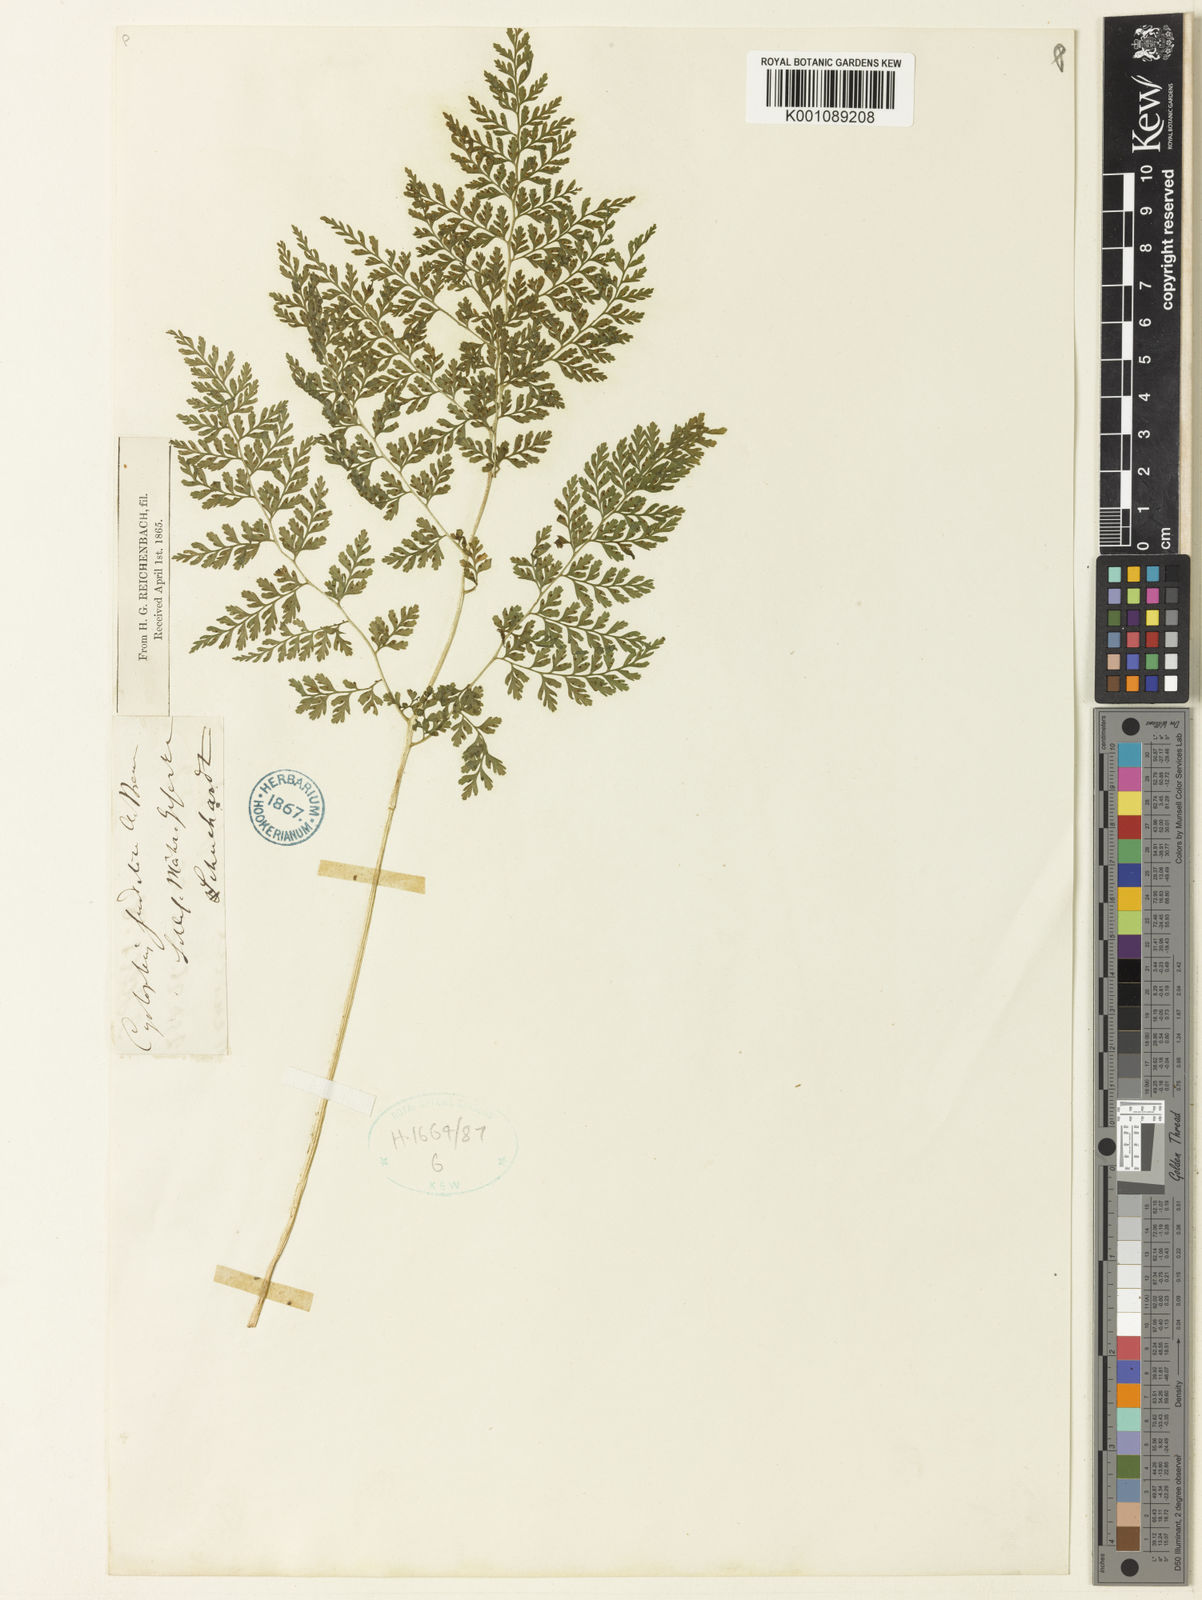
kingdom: Plantae
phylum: Tracheophyta
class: Polypodiopsida
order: Polypodiales
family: Cystopteridaceae
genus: Cystopteris
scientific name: Cystopteris sudetica
